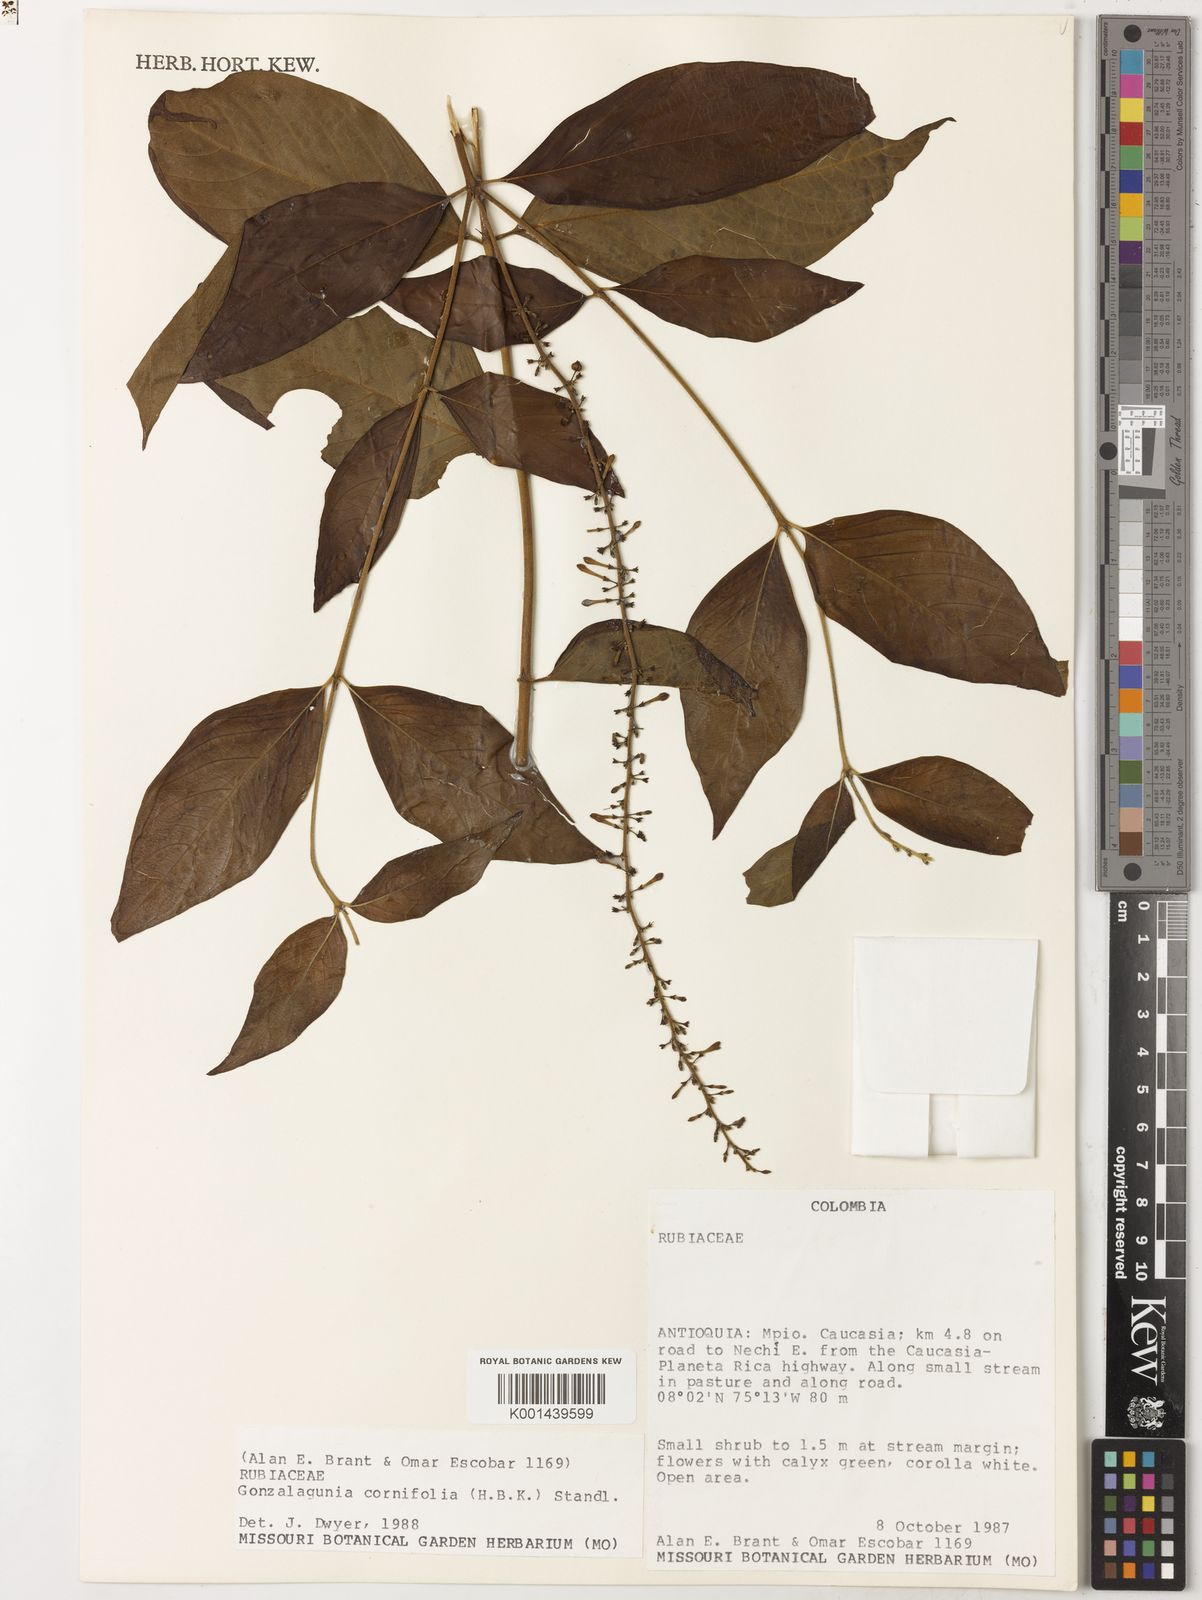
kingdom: Plantae
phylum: Tracheophyta
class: Magnoliopsida
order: Gentianales
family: Rubiaceae
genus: Gonzalagunia
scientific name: Gonzalagunia cornifolia
